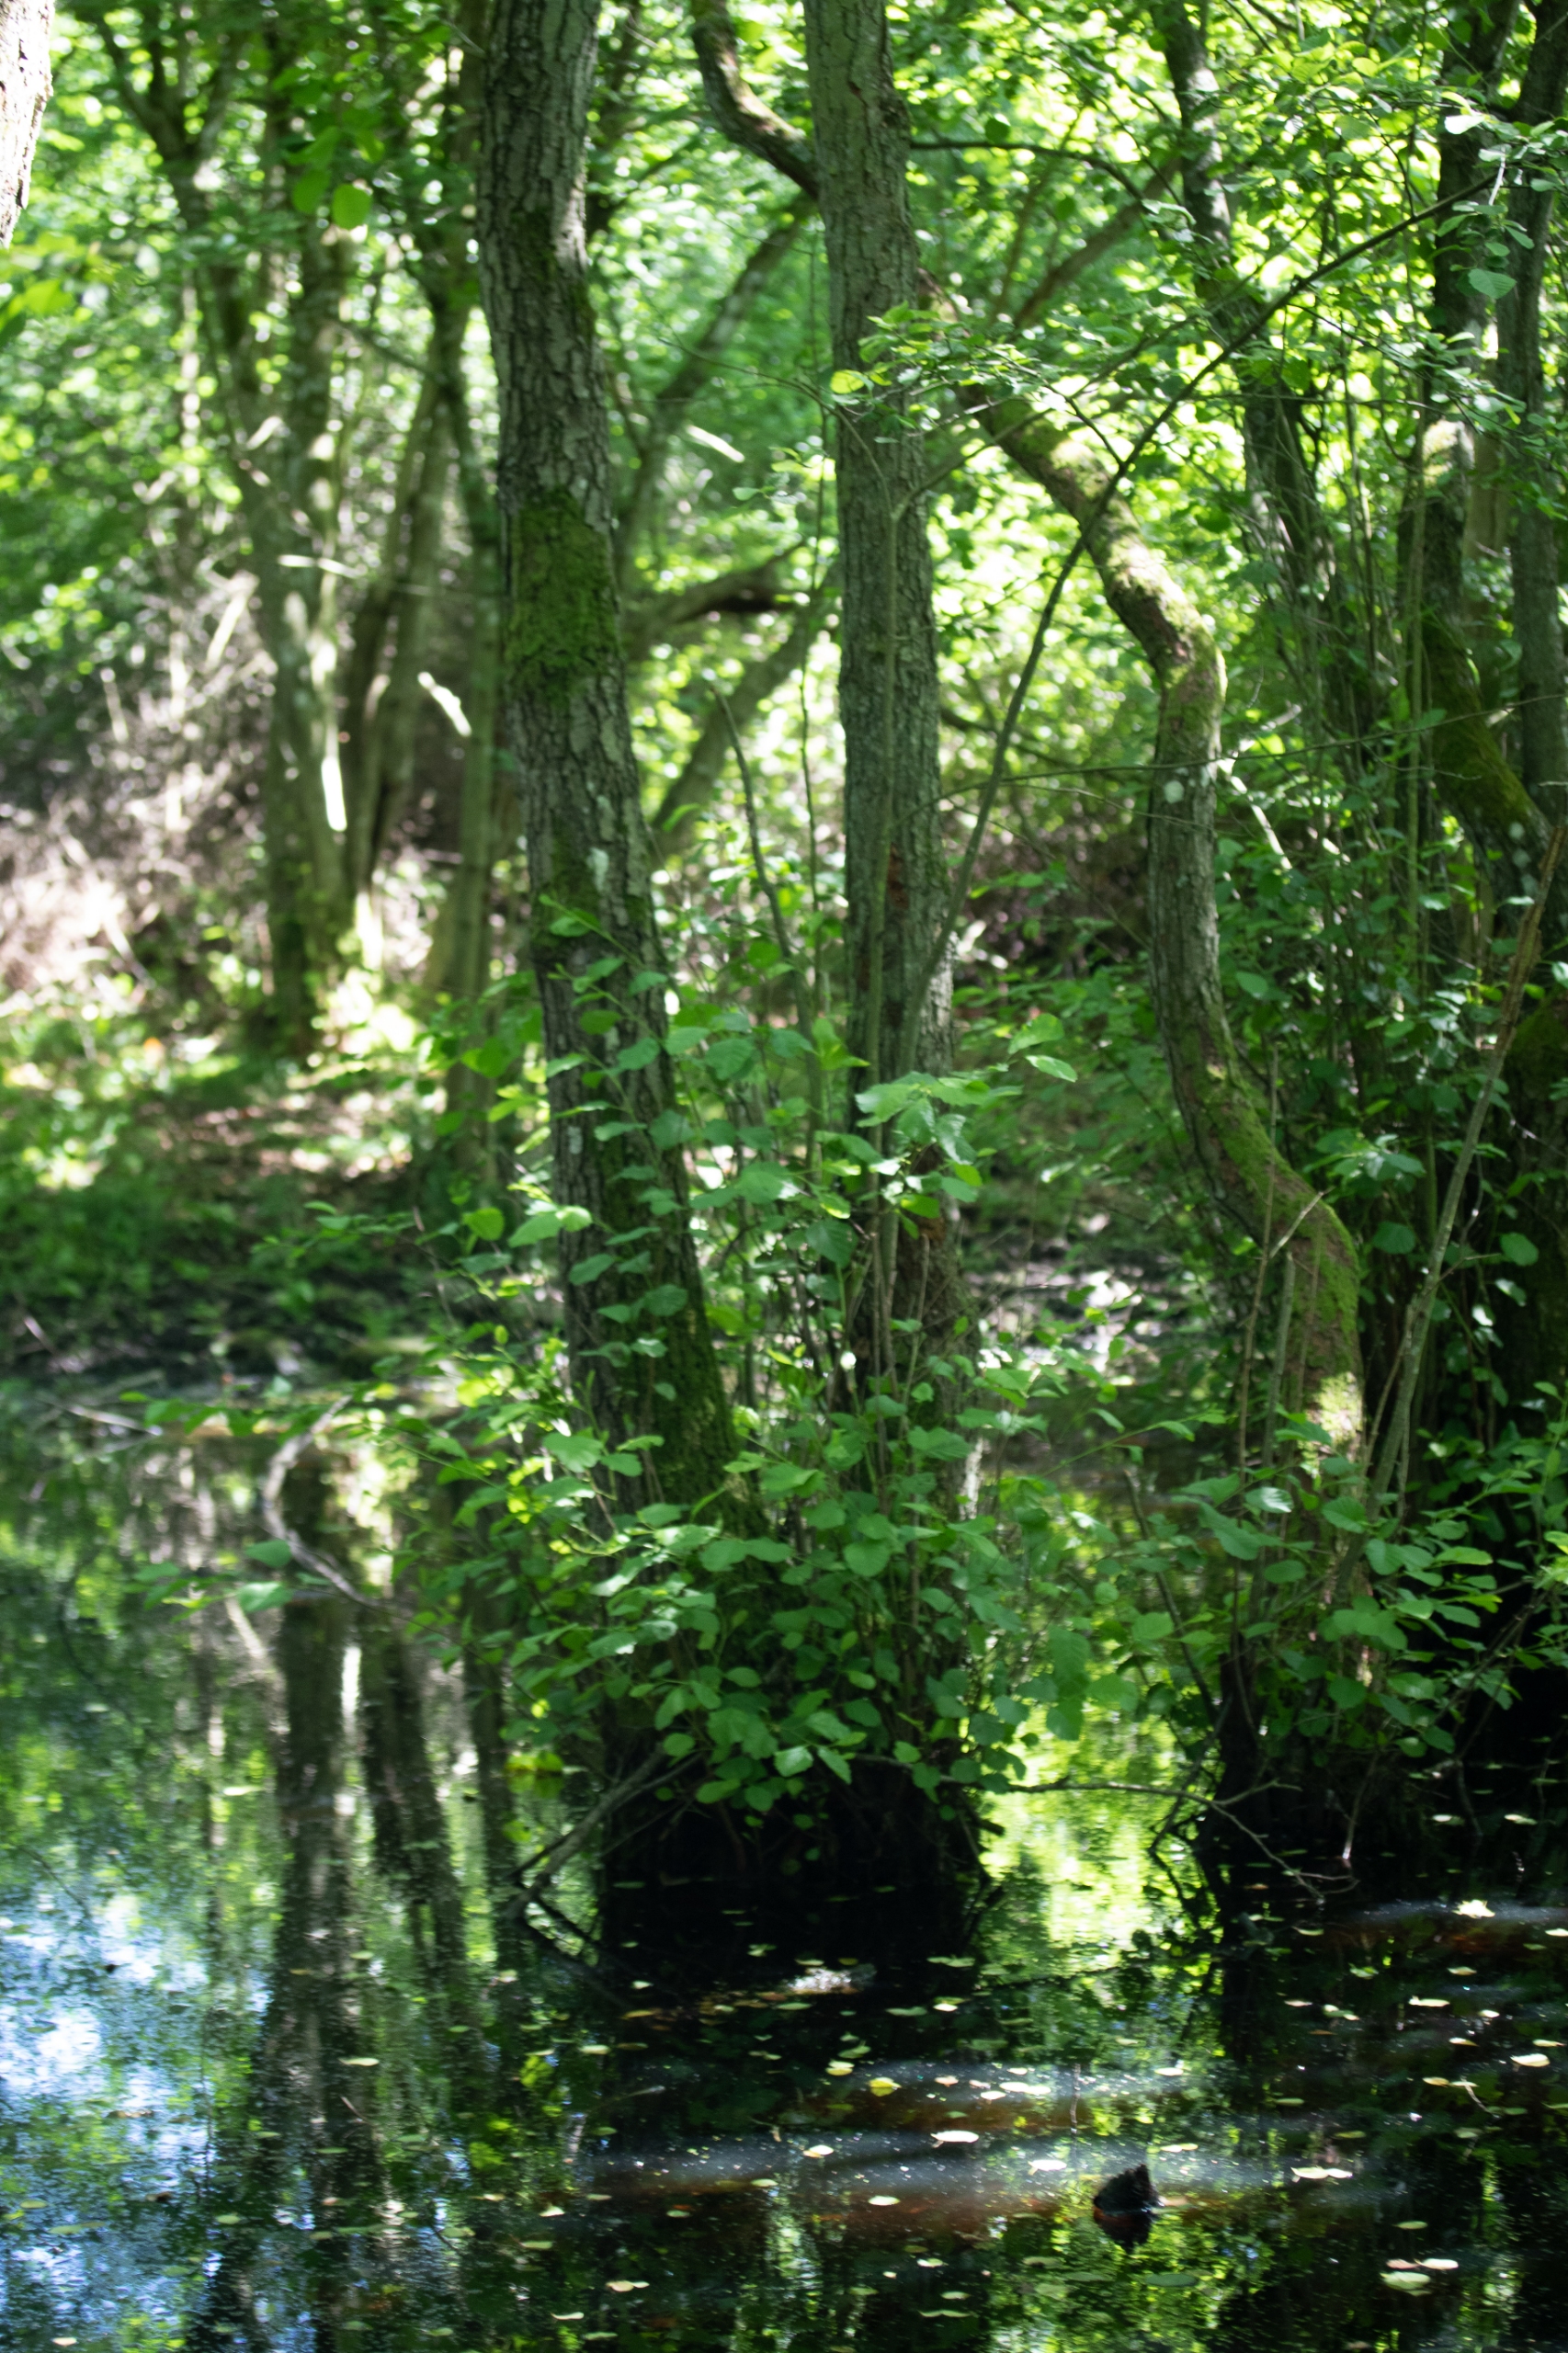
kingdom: Plantae
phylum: Tracheophyta
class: Magnoliopsida
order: Fagales
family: Betulaceae
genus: Alnus
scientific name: Alnus glutinosa
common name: Rød-el
